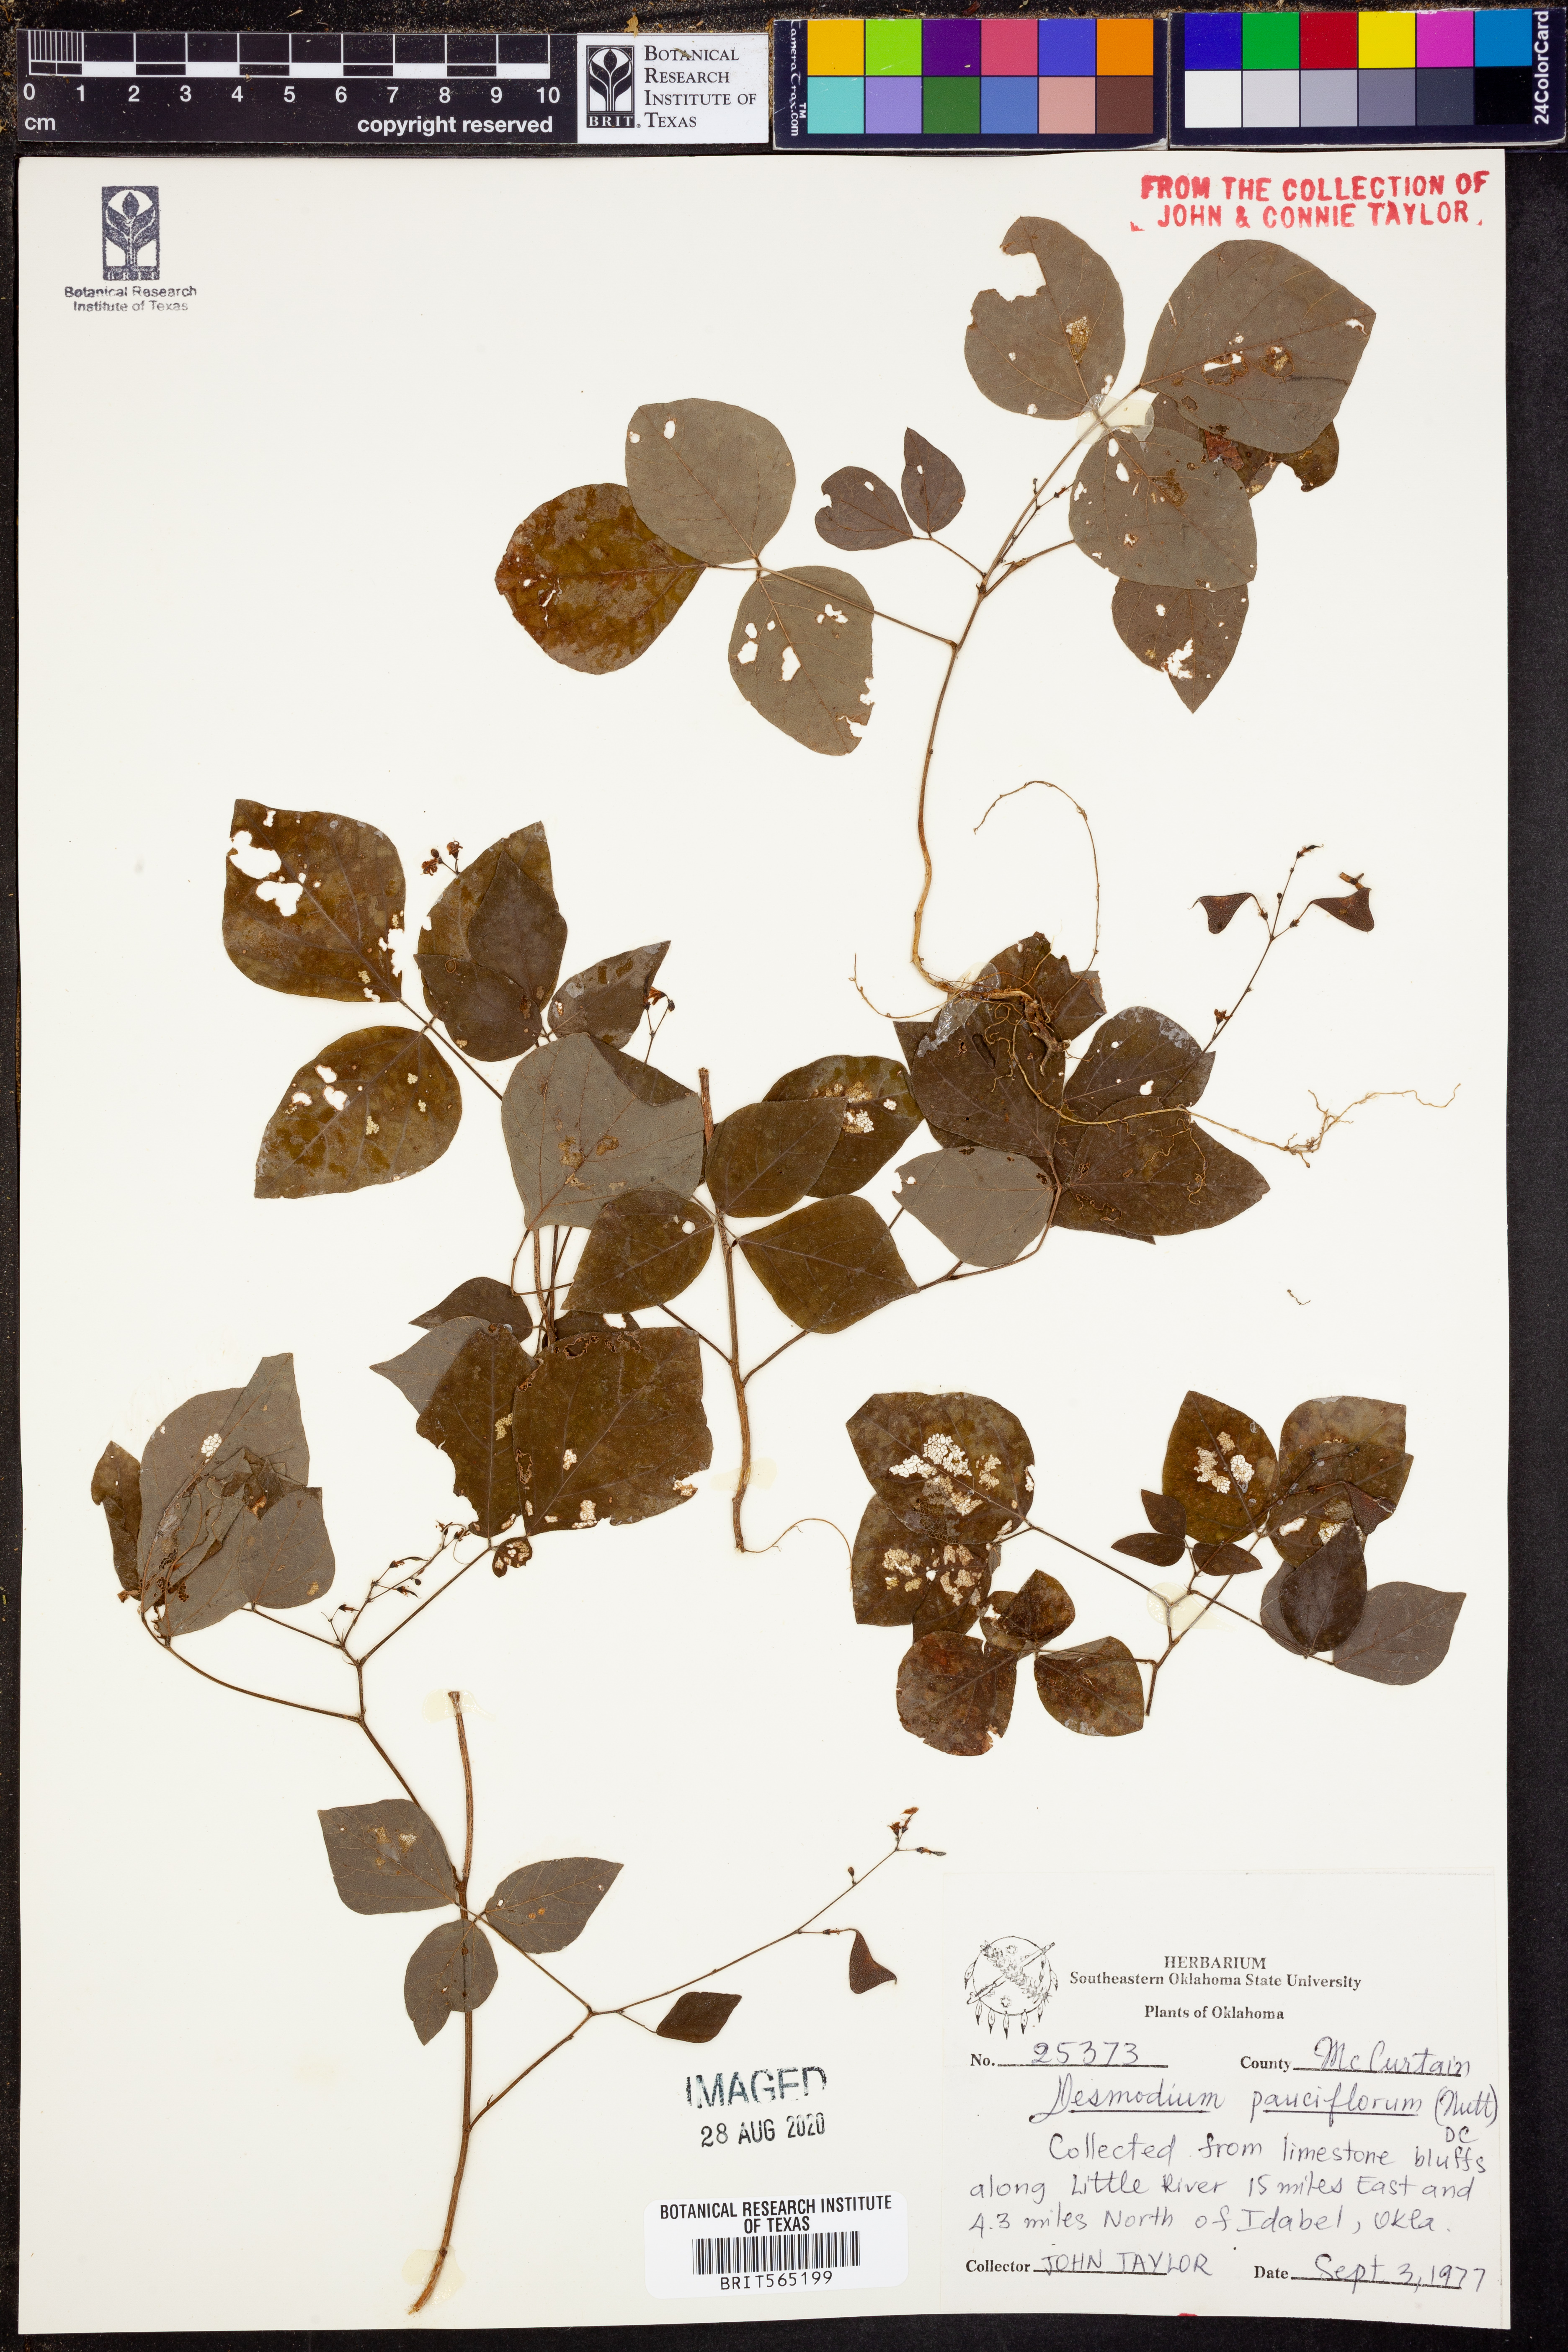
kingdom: Plantae
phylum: Tracheophyta
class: Magnoliopsida
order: Fabales
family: Fabaceae
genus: Hylodesmum
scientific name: Hylodesmum pauciflorum
